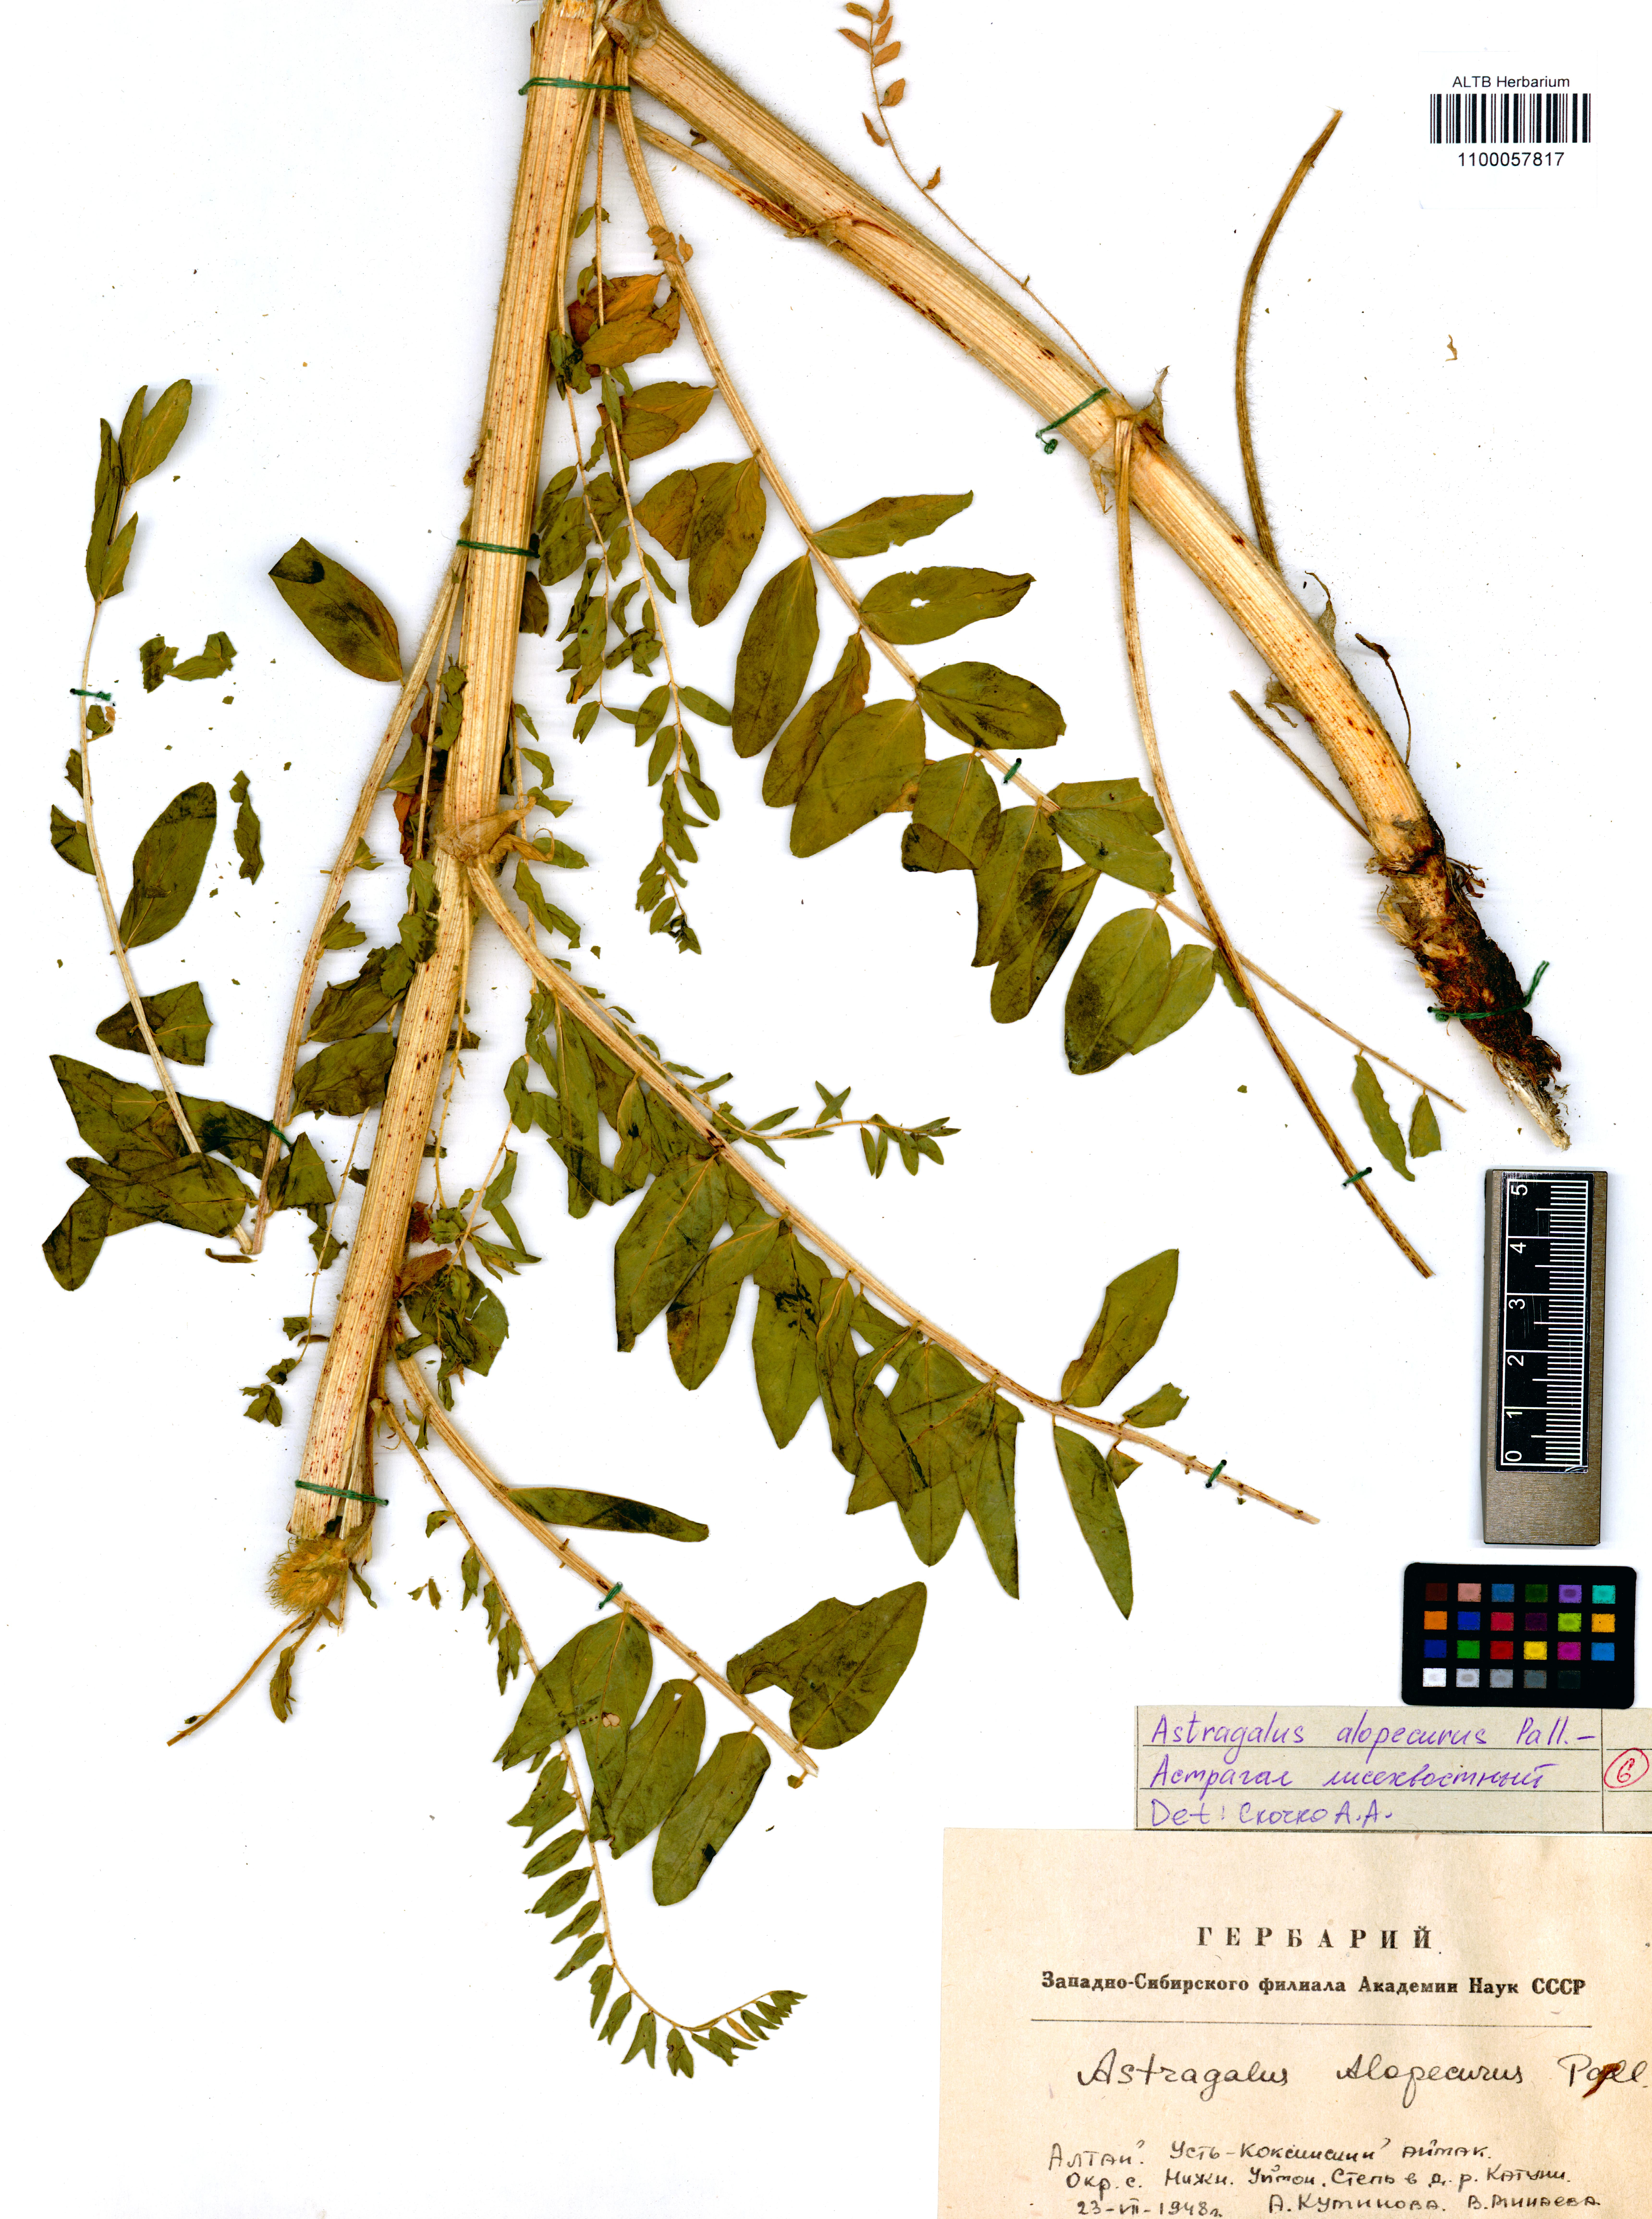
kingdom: Plantae
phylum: Tracheophyta
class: Magnoliopsida
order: Fabales
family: Fabaceae
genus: Astragalus
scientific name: Astragalus alopecurus
